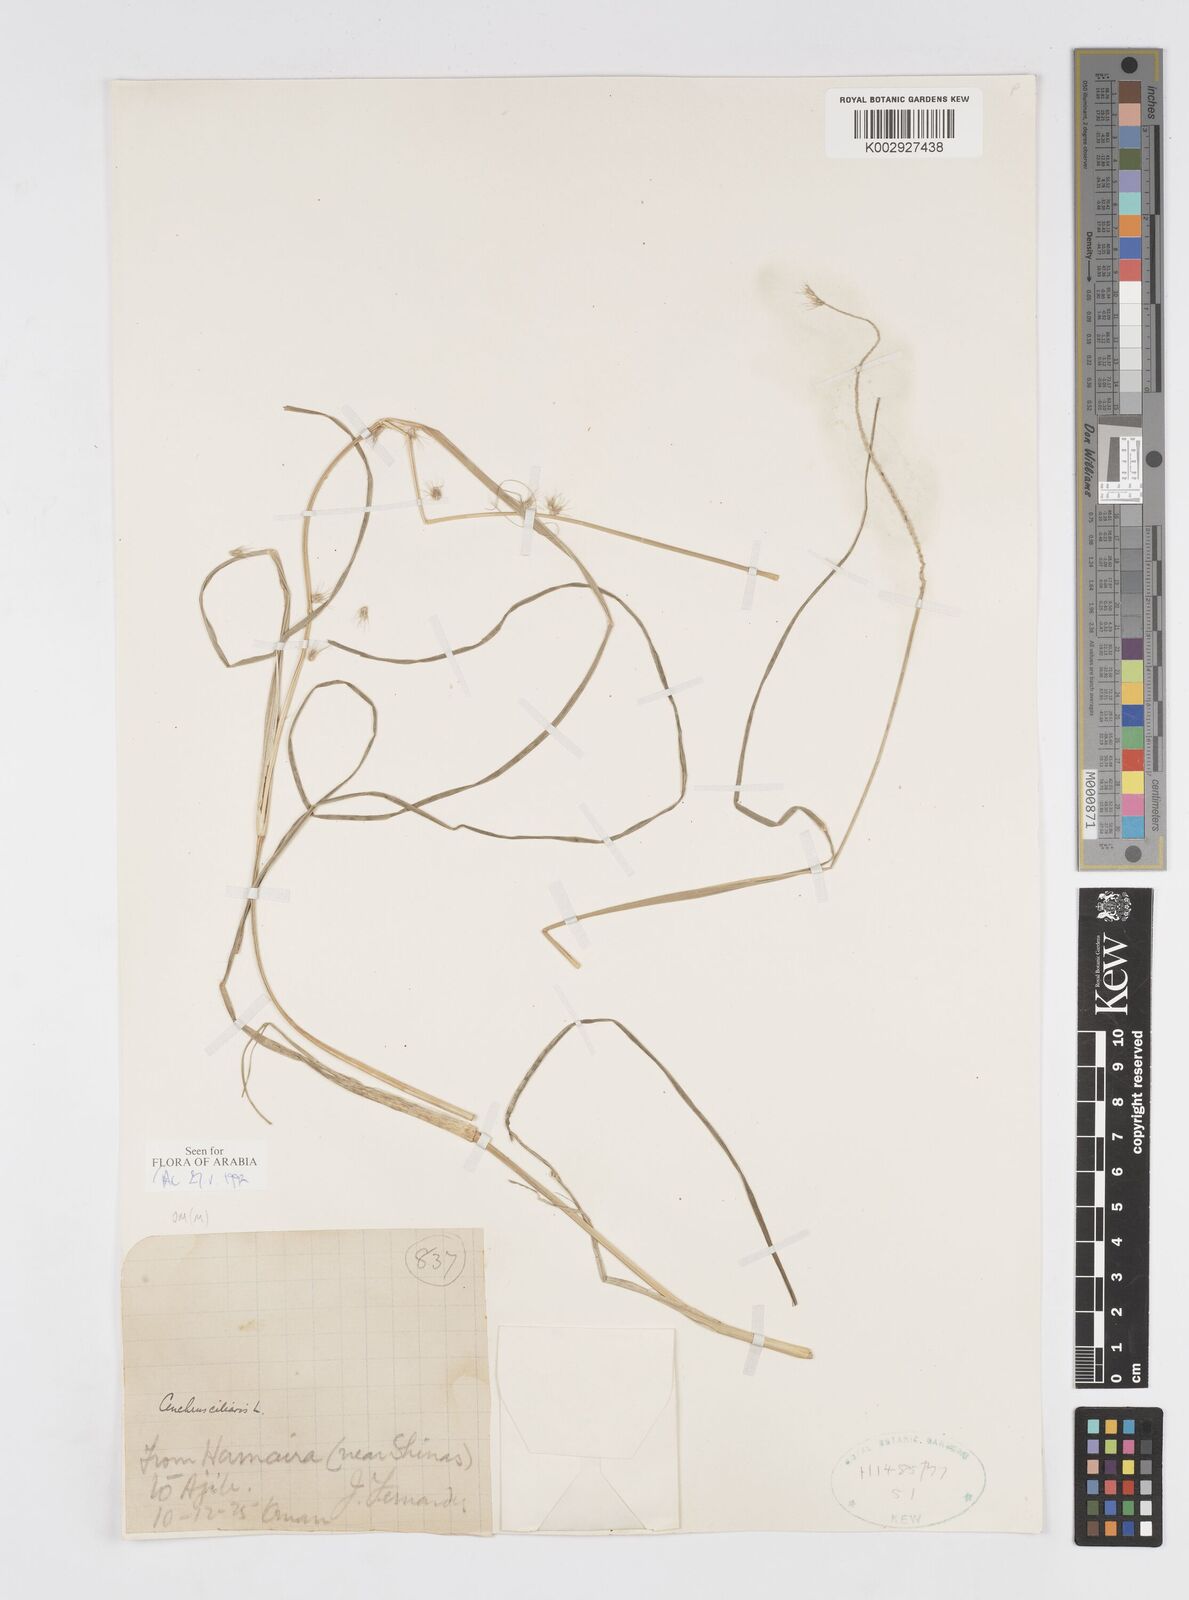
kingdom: Plantae
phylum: Tracheophyta
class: Liliopsida
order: Poales
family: Poaceae
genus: Cenchrus
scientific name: Cenchrus ciliaris
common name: Buffelgrass
